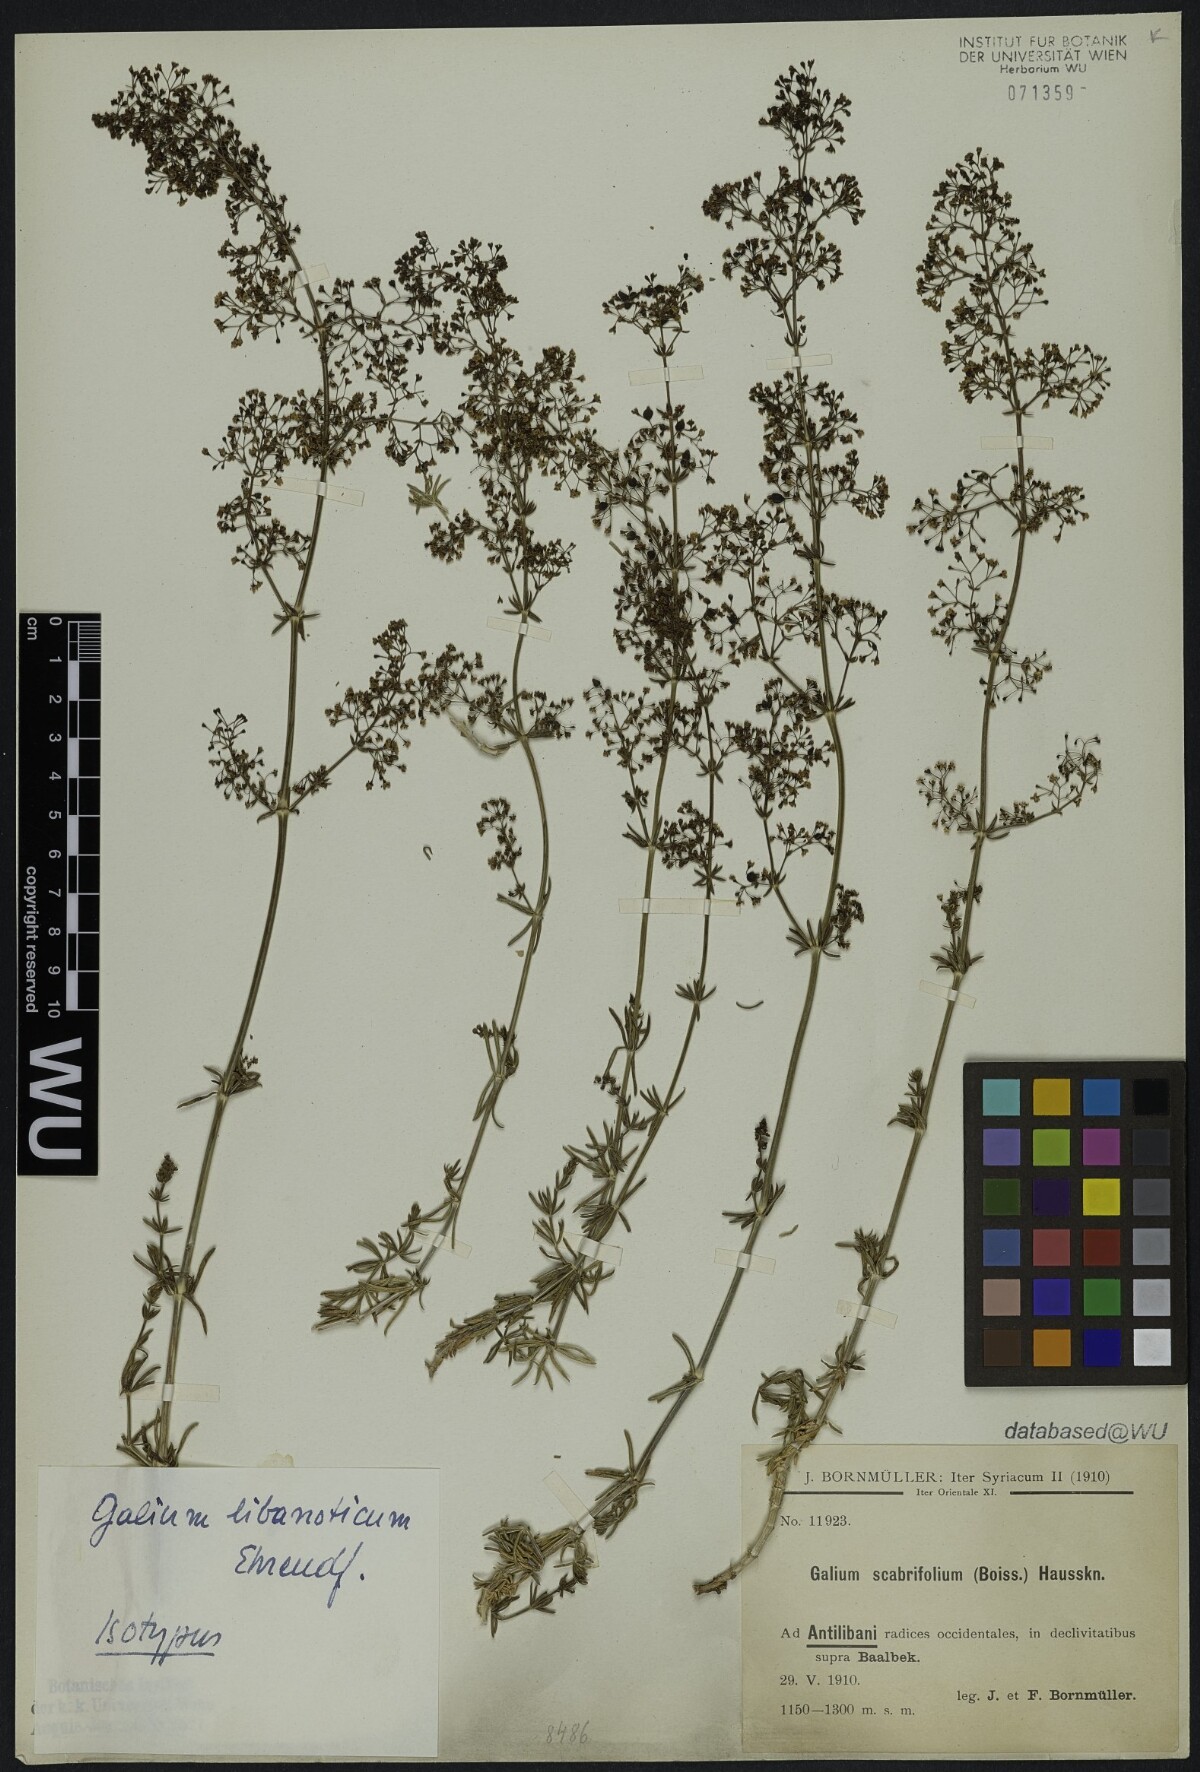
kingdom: Plantae
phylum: Tracheophyta
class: Magnoliopsida
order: Gentianales
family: Rubiaceae
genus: Galium
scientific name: Galium libanoticum
